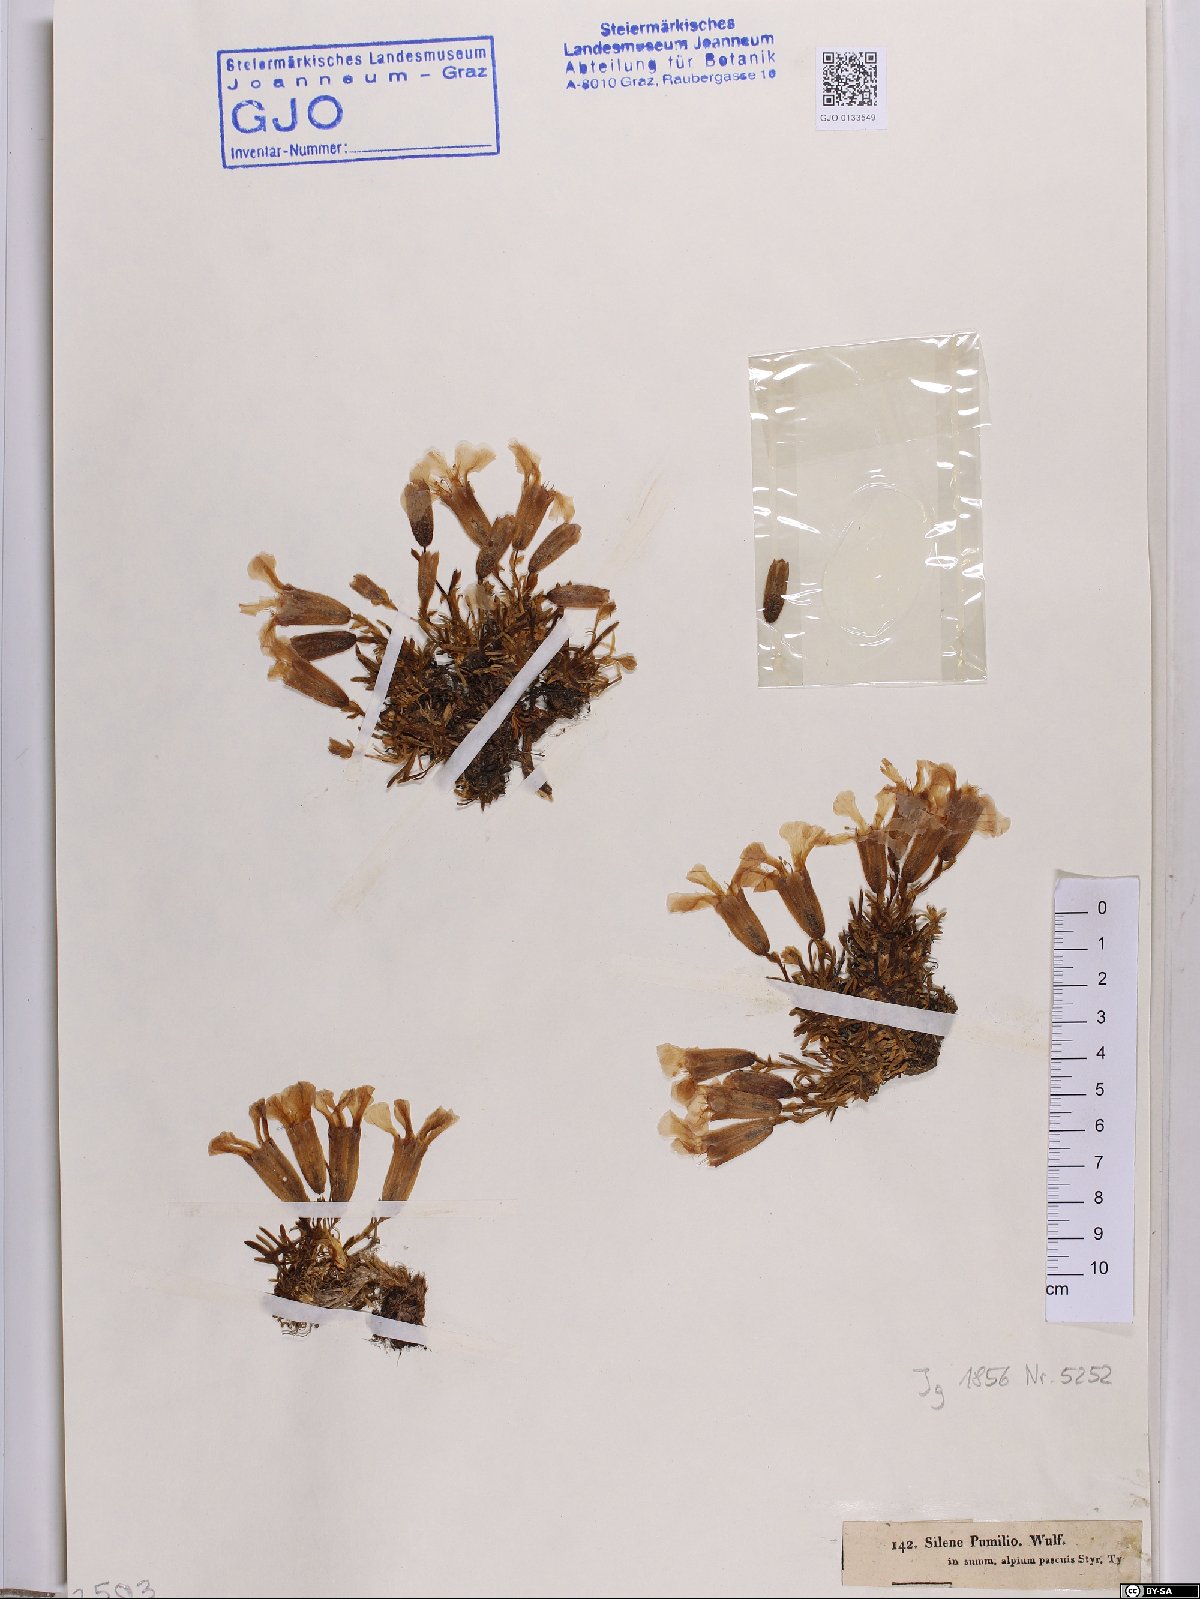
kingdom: Plantae
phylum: Tracheophyta
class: Magnoliopsida
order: Caryophyllales
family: Caryophyllaceae
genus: Saponaria
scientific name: Saponaria pumila
